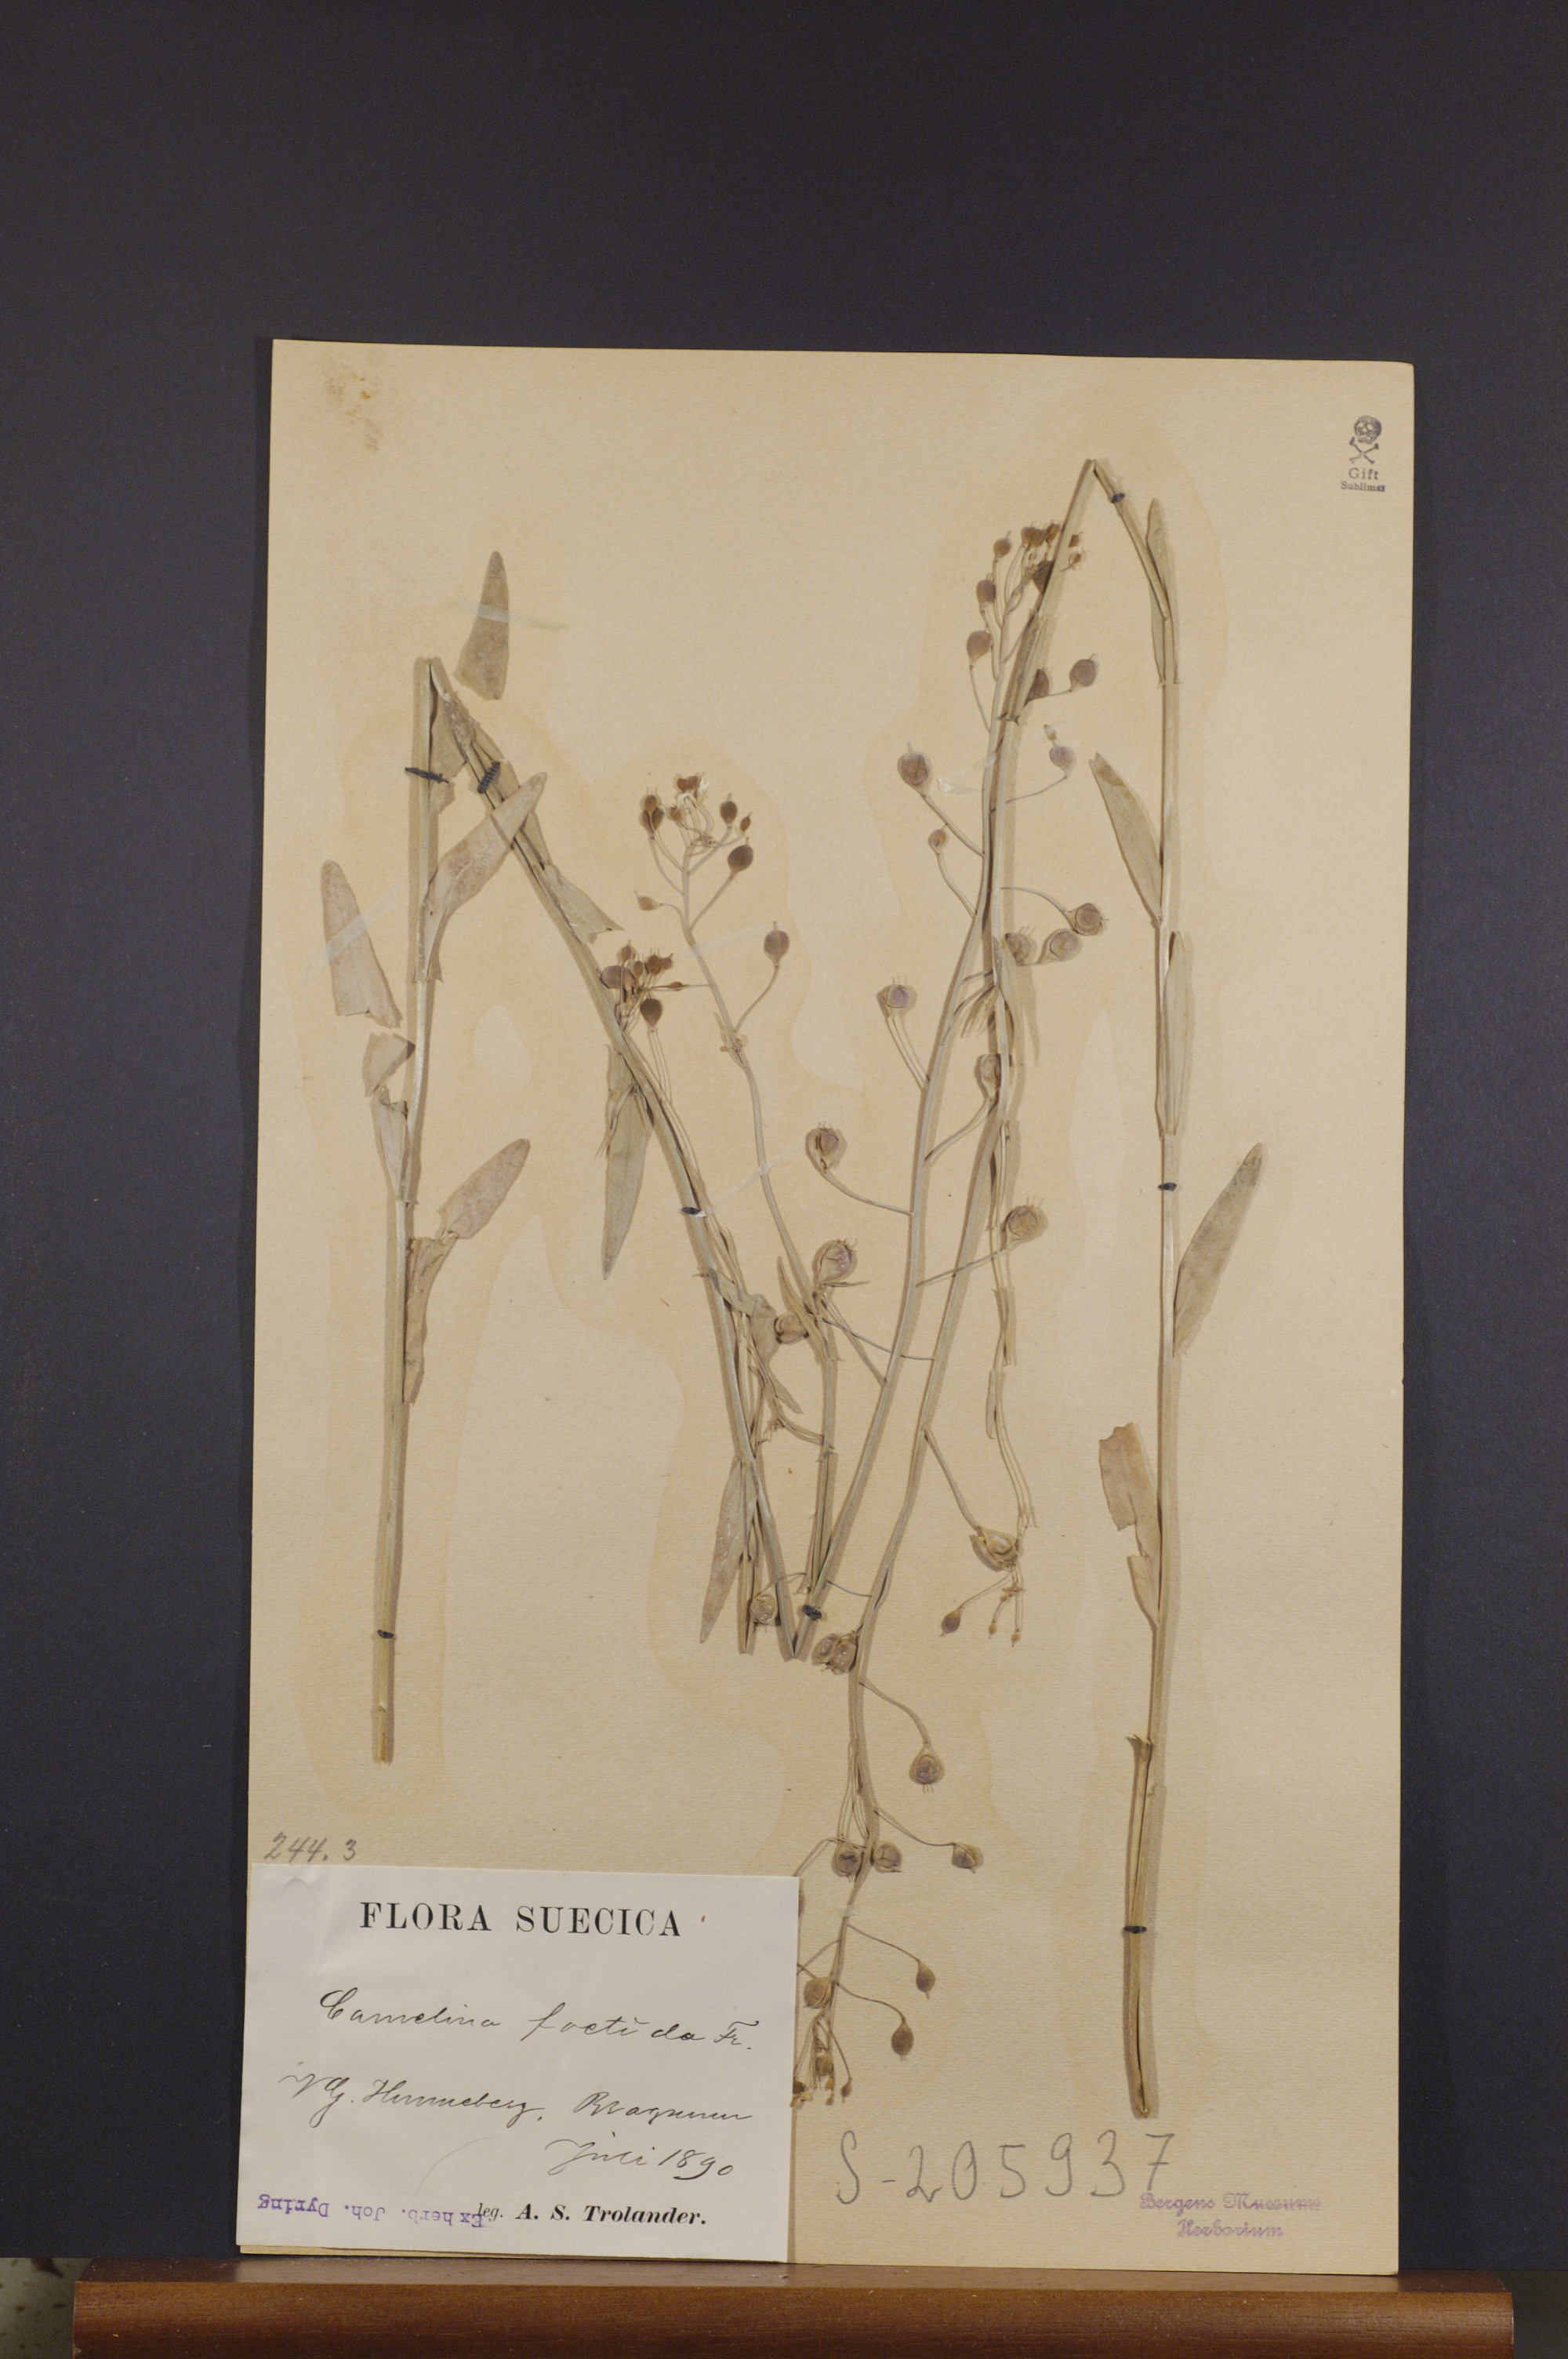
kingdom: Plantae
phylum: Tracheophyta
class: Magnoliopsida
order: Brassicales
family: Brassicaceae
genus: Camelina
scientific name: Camelina alyssum
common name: Gold-of-pleasure
